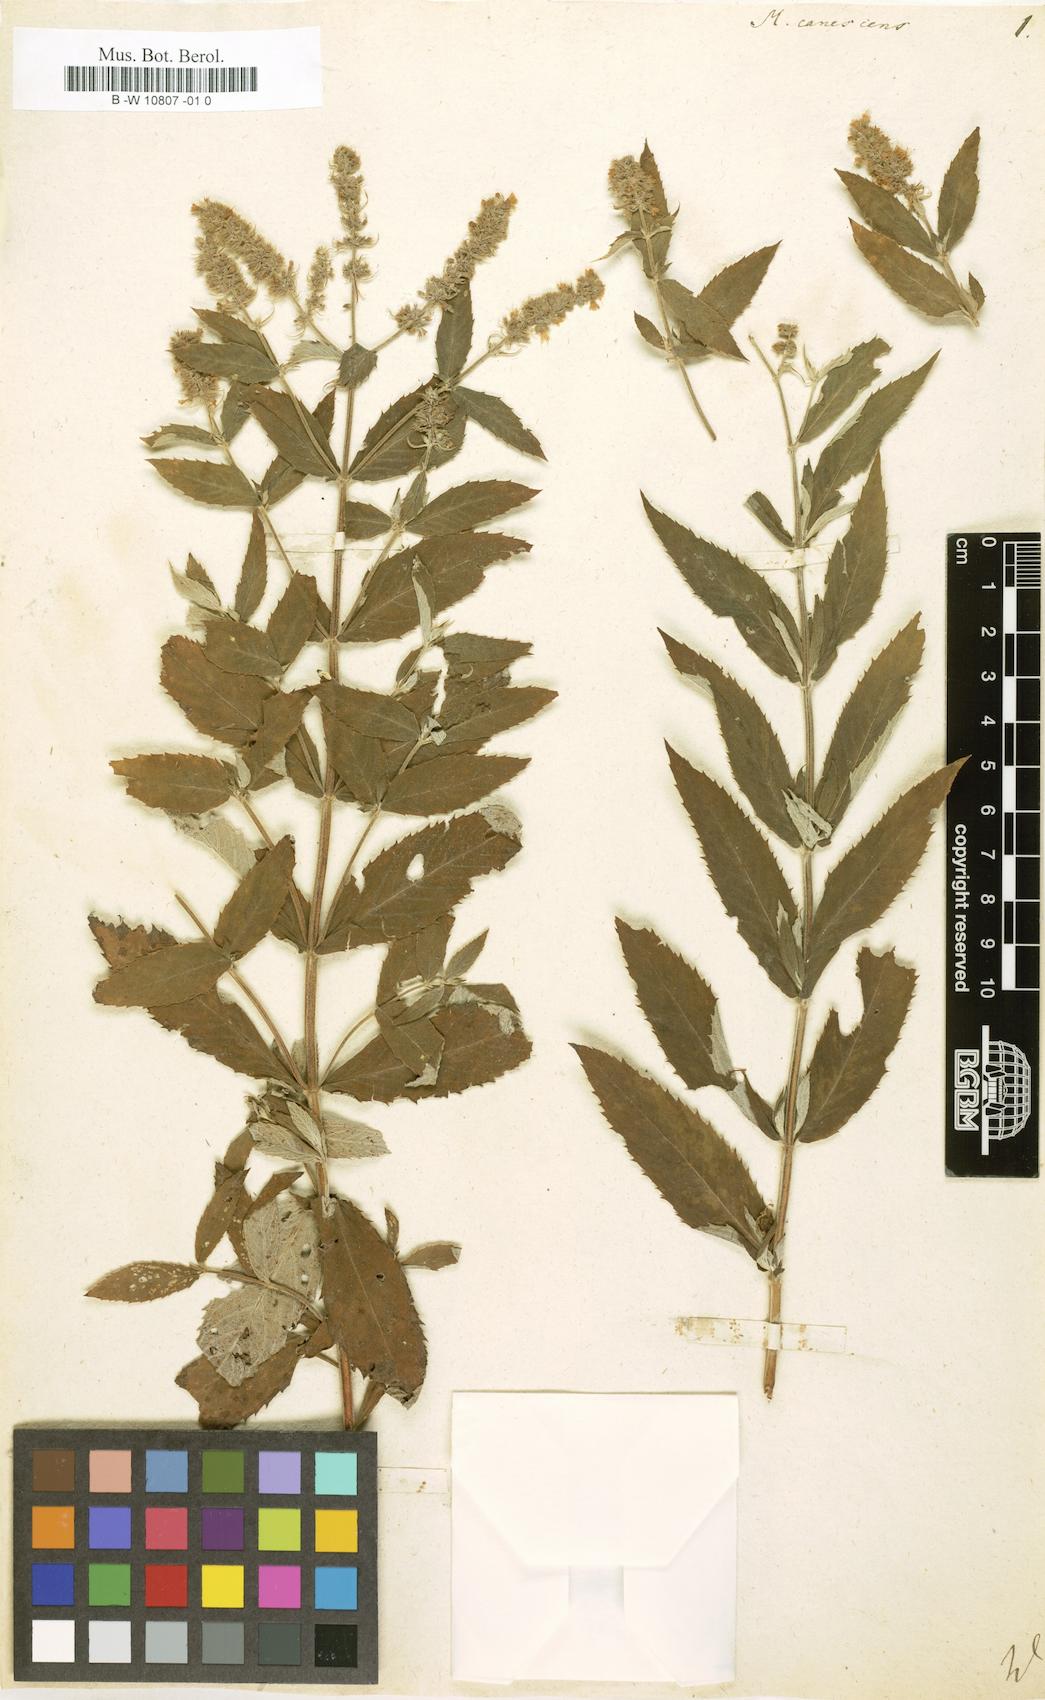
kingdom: Plantae
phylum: Tracheophyta
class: Magnoliopsida
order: Lamiales
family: Lamiaceae
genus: Mentha
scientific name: Mentha longifolia
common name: Horse mint
